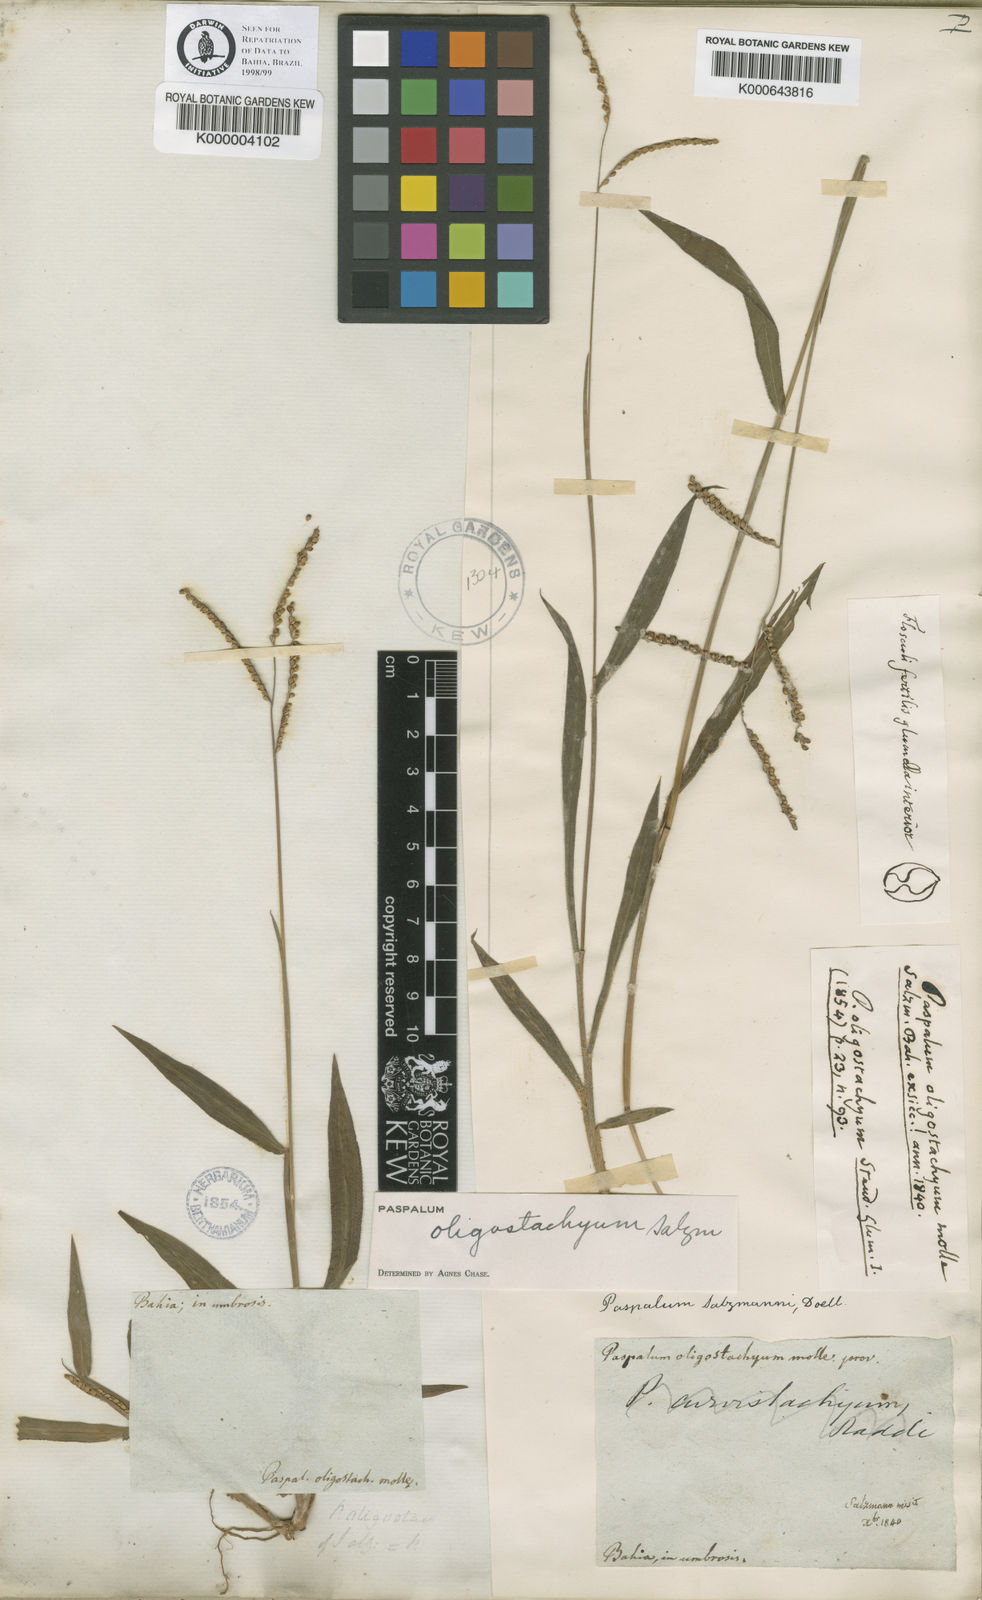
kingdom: Plantae
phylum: Tracheophyta
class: Liliopsida
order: Poales
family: Poaceae
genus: Paspalum
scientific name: Paspalum oligostachyum
